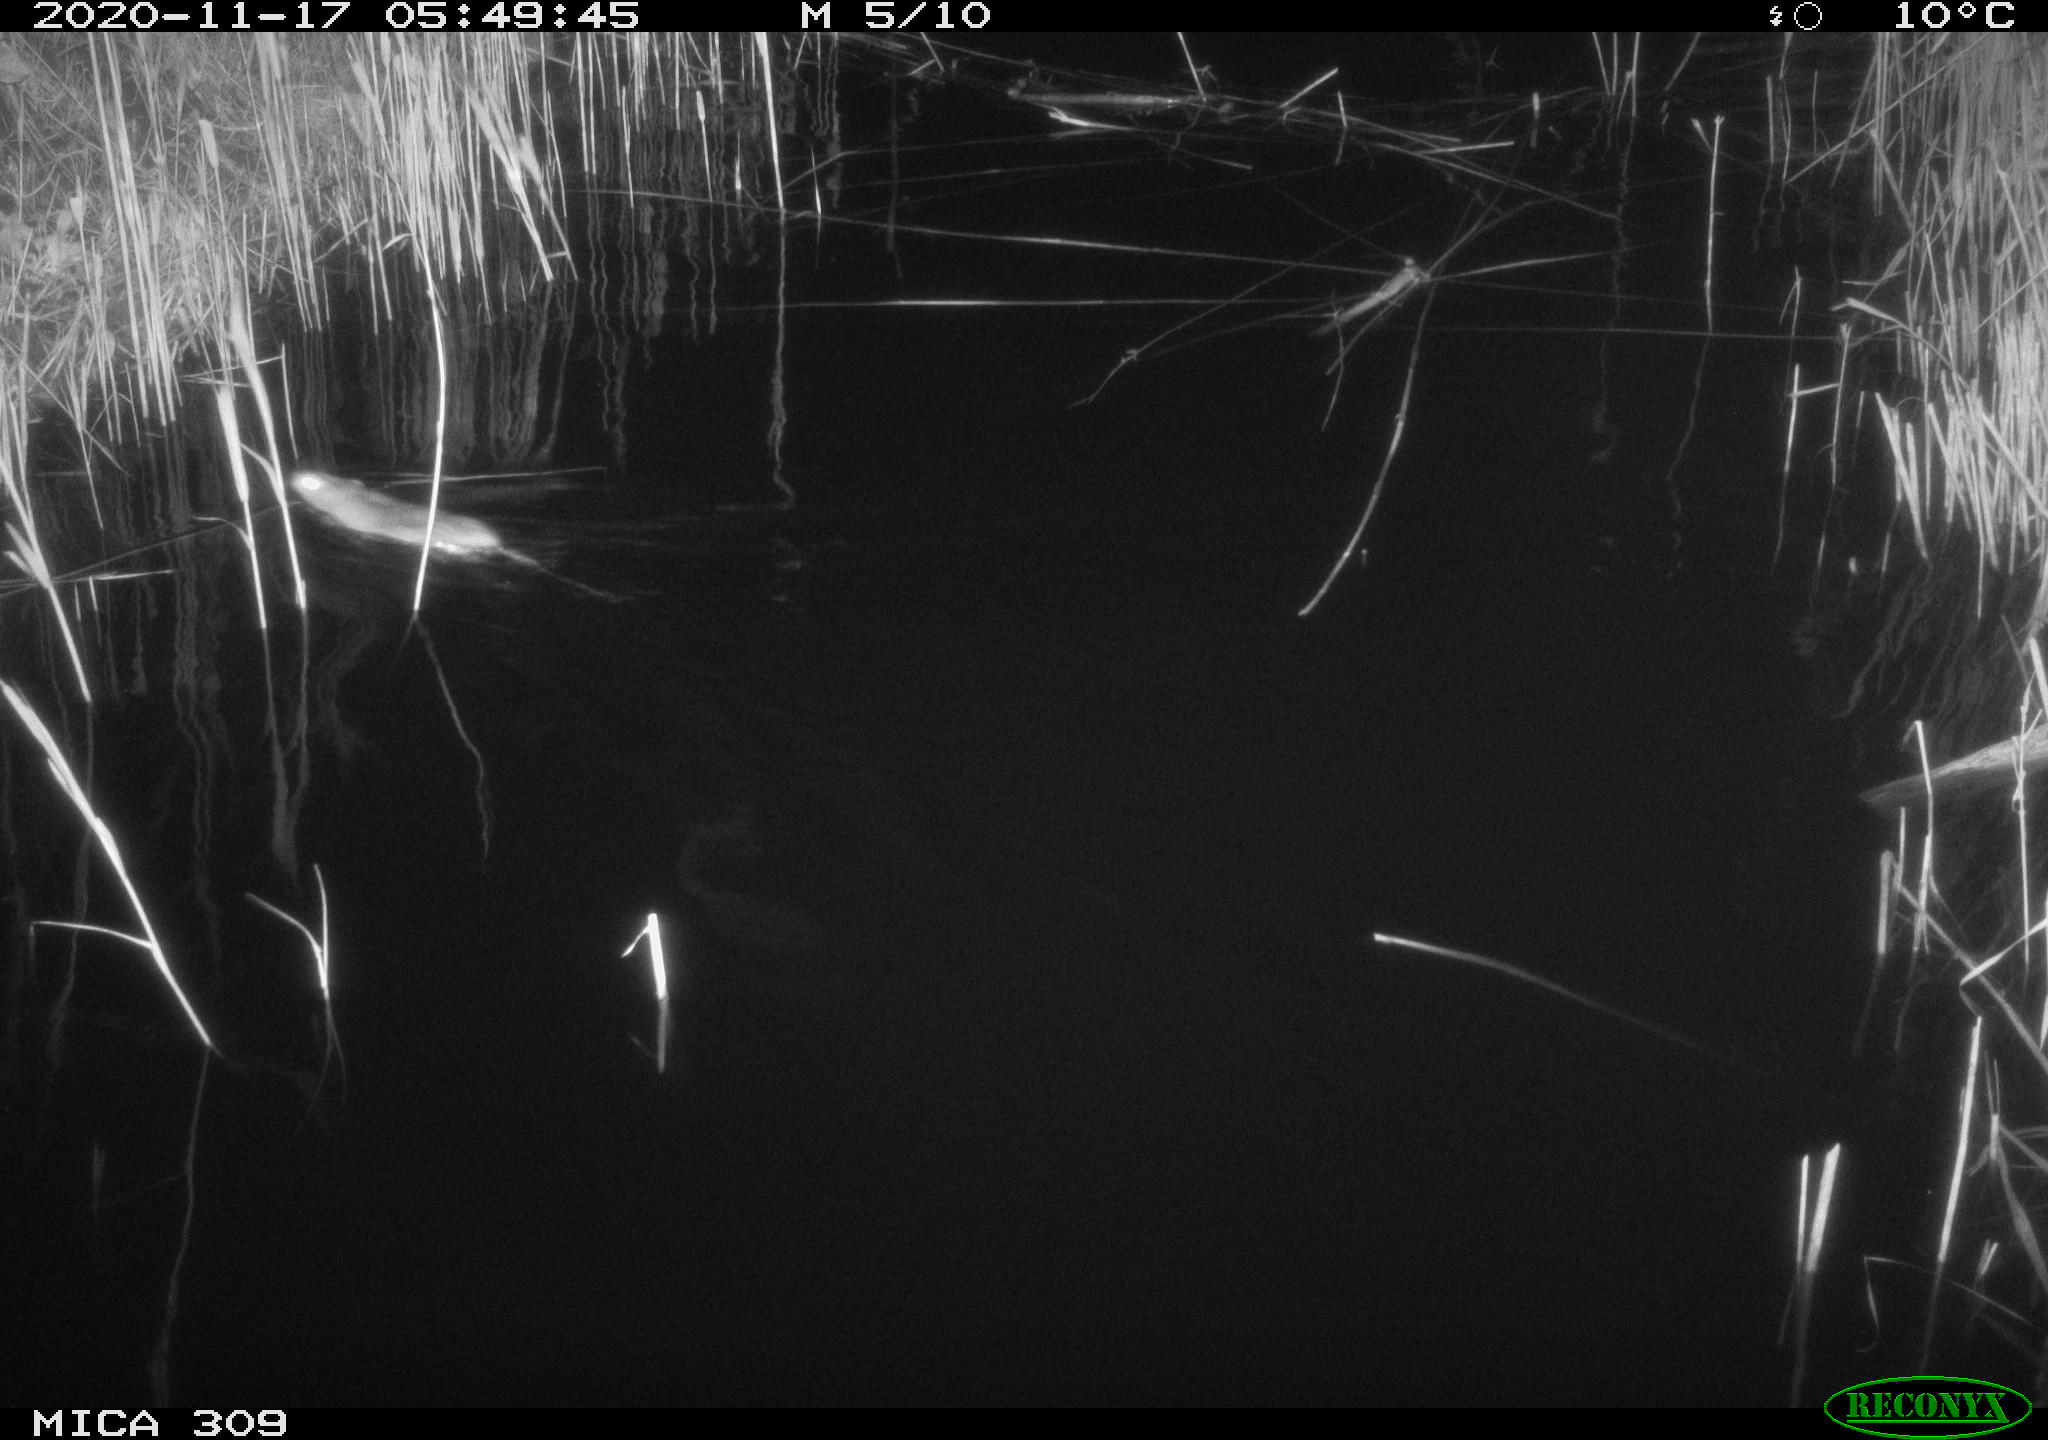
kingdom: Animalia
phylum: Chordata
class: Mammalia
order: Rodentia
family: Muridae
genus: Rattus
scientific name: Rattus norvegicus
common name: Brown rat
